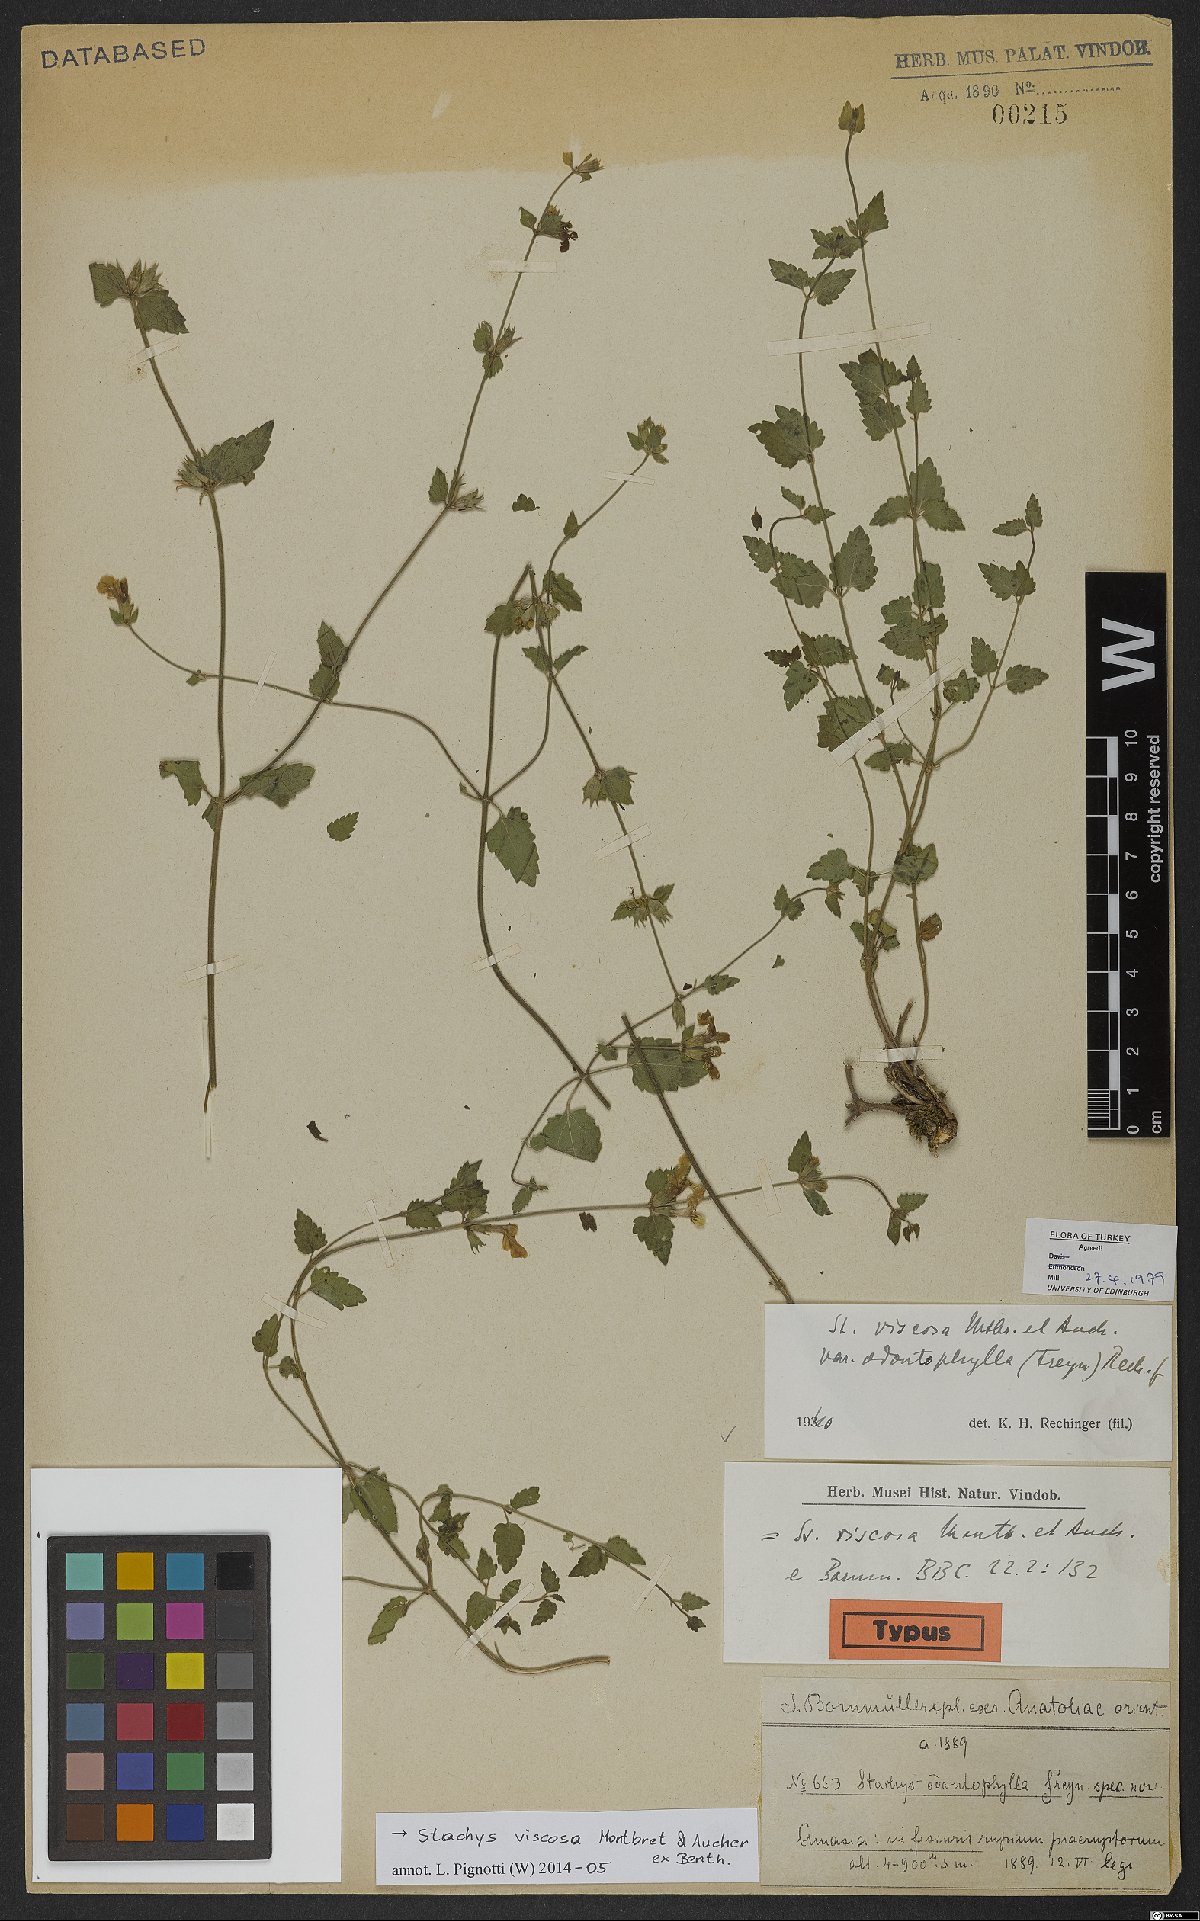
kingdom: Plantae
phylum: Tracheophyta
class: Magnoliopsida
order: Lamiales
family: Lamiaceae
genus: Stachys
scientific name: Stachys viscosa
